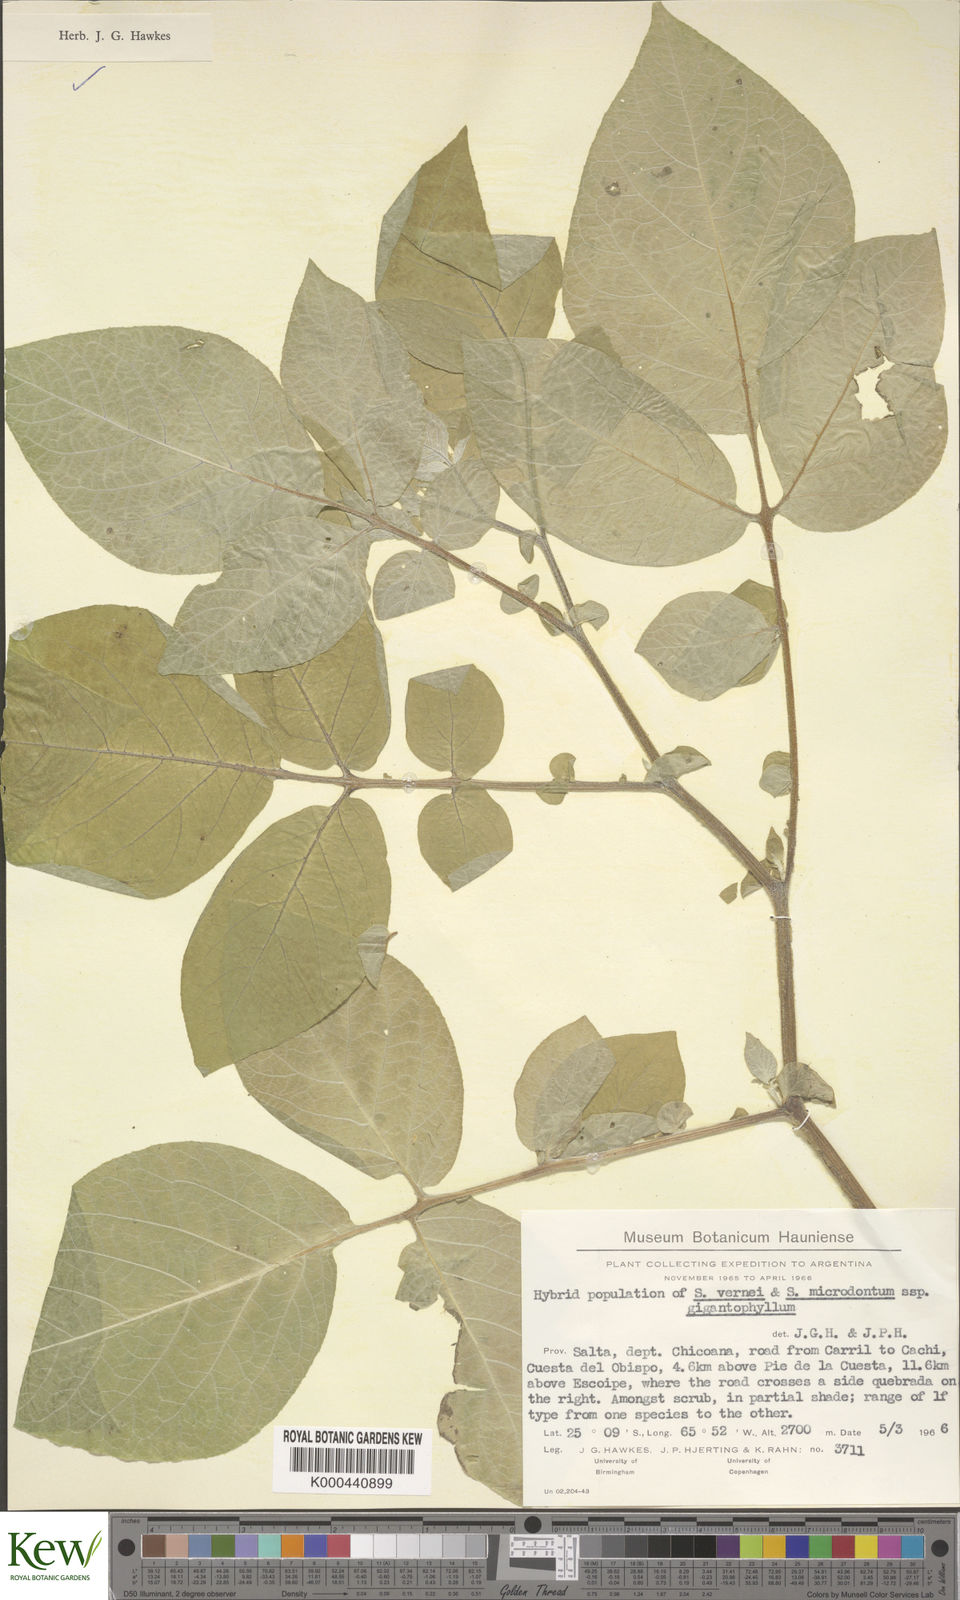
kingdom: Plantae
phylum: Tracheophyta
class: Magnoliopsida
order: Solanales
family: Solanaceae
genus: Solanum
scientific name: Solanum microdontum
